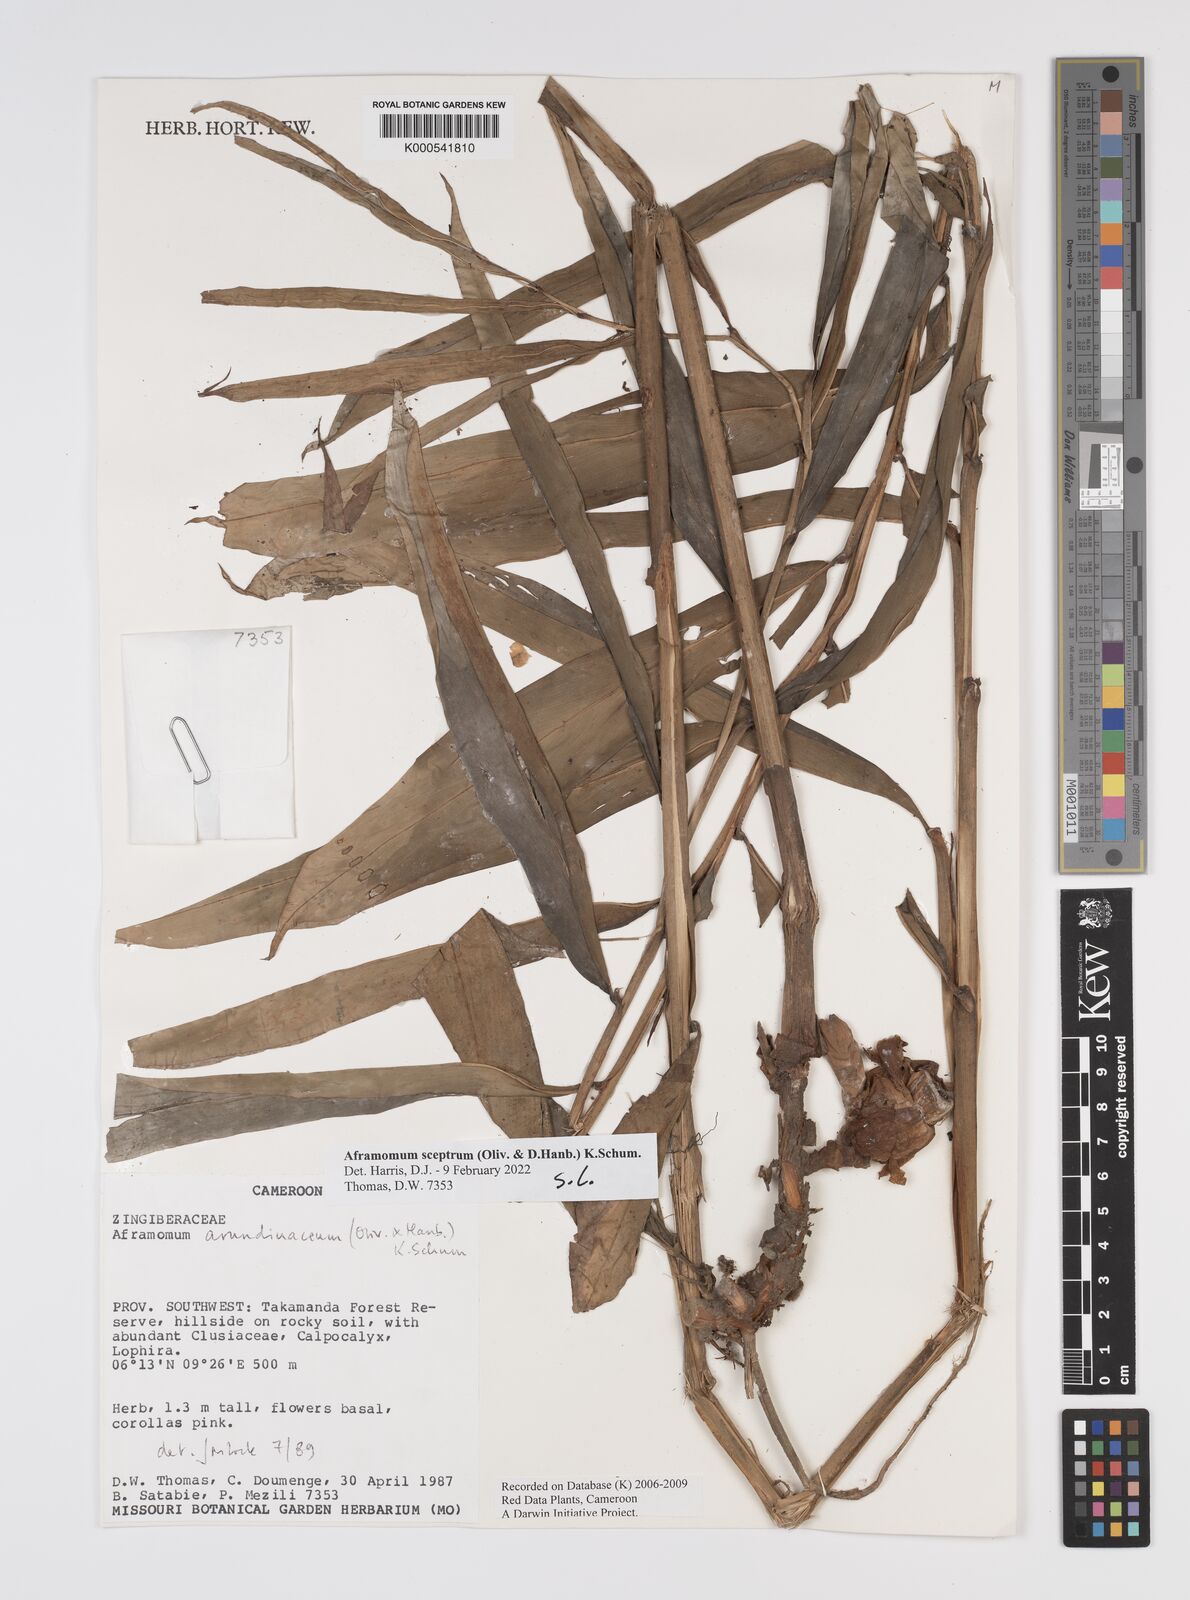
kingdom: Plantae
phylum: Tracheophyta
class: Liliopsida
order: Zingiberales
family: Zingiberaceae
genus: Aframomum
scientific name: Aframomum arundinaceum
